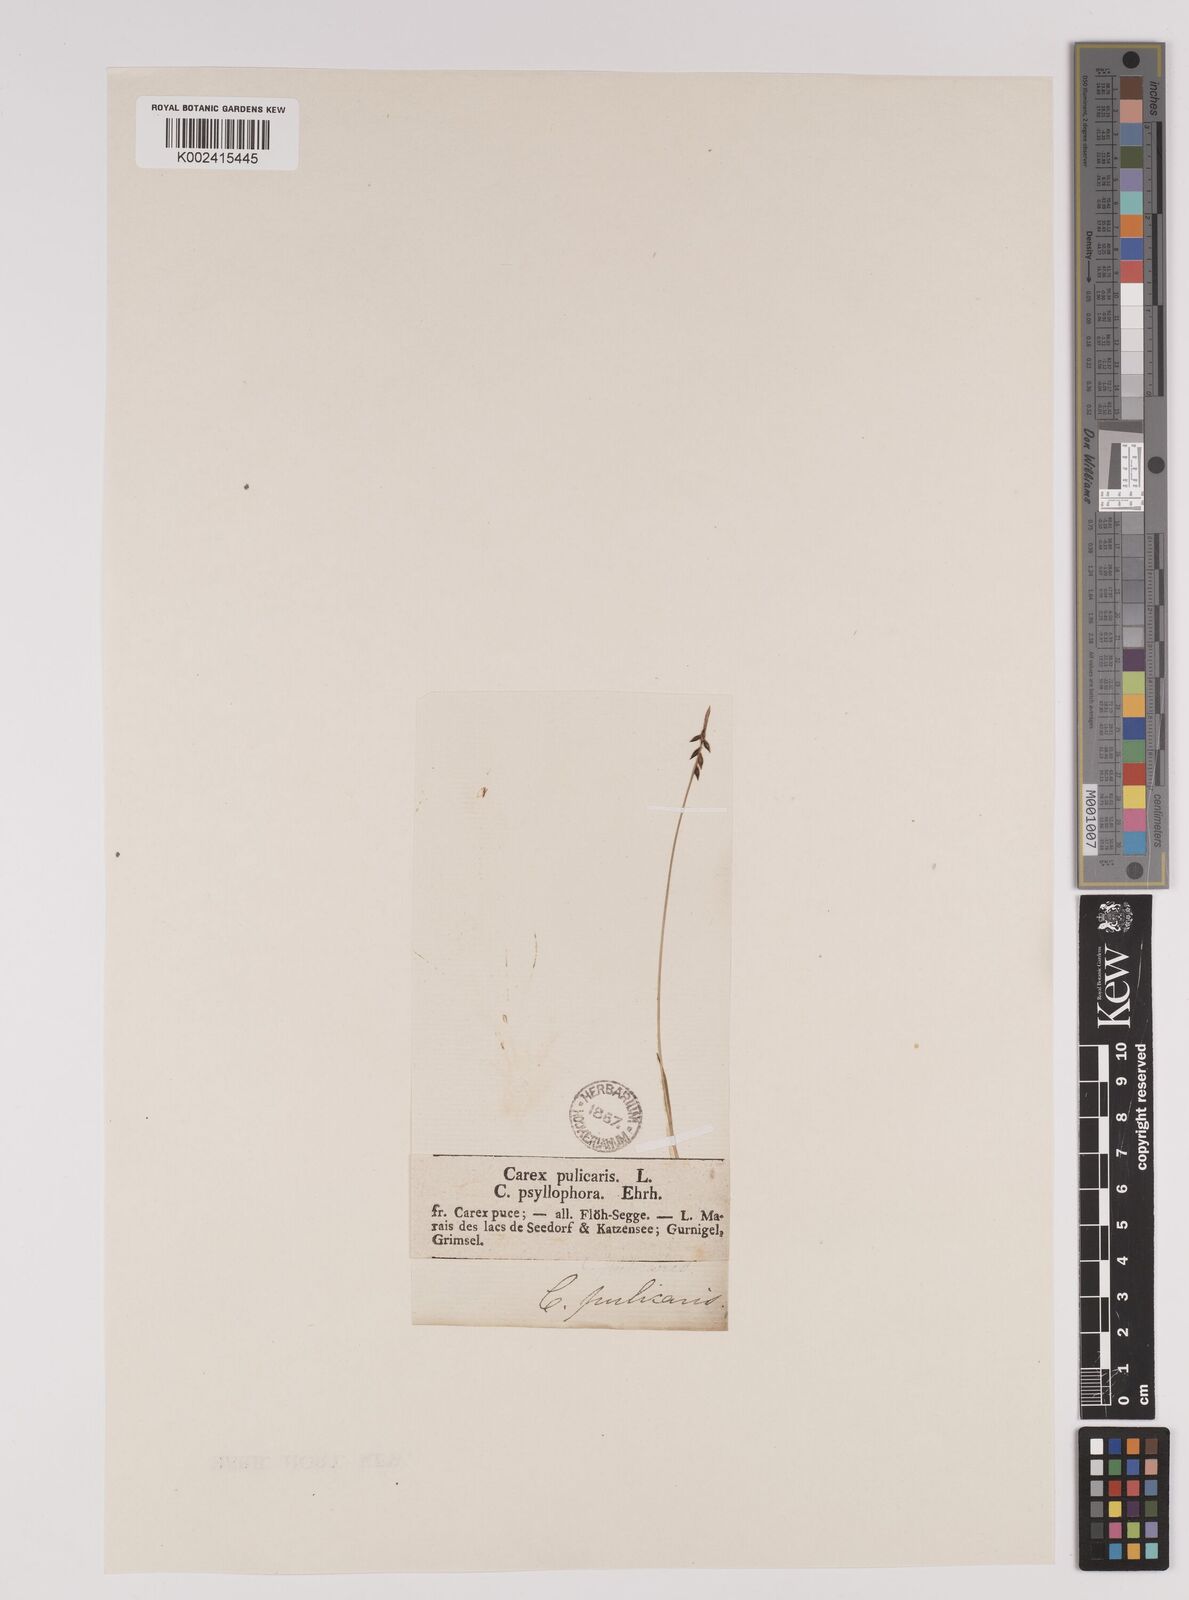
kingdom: Plantae
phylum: Tracheophyta
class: Liliopsida
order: Poales
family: Cyperaceae
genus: Carex
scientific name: Carex pulicaris
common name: Flea sedge
